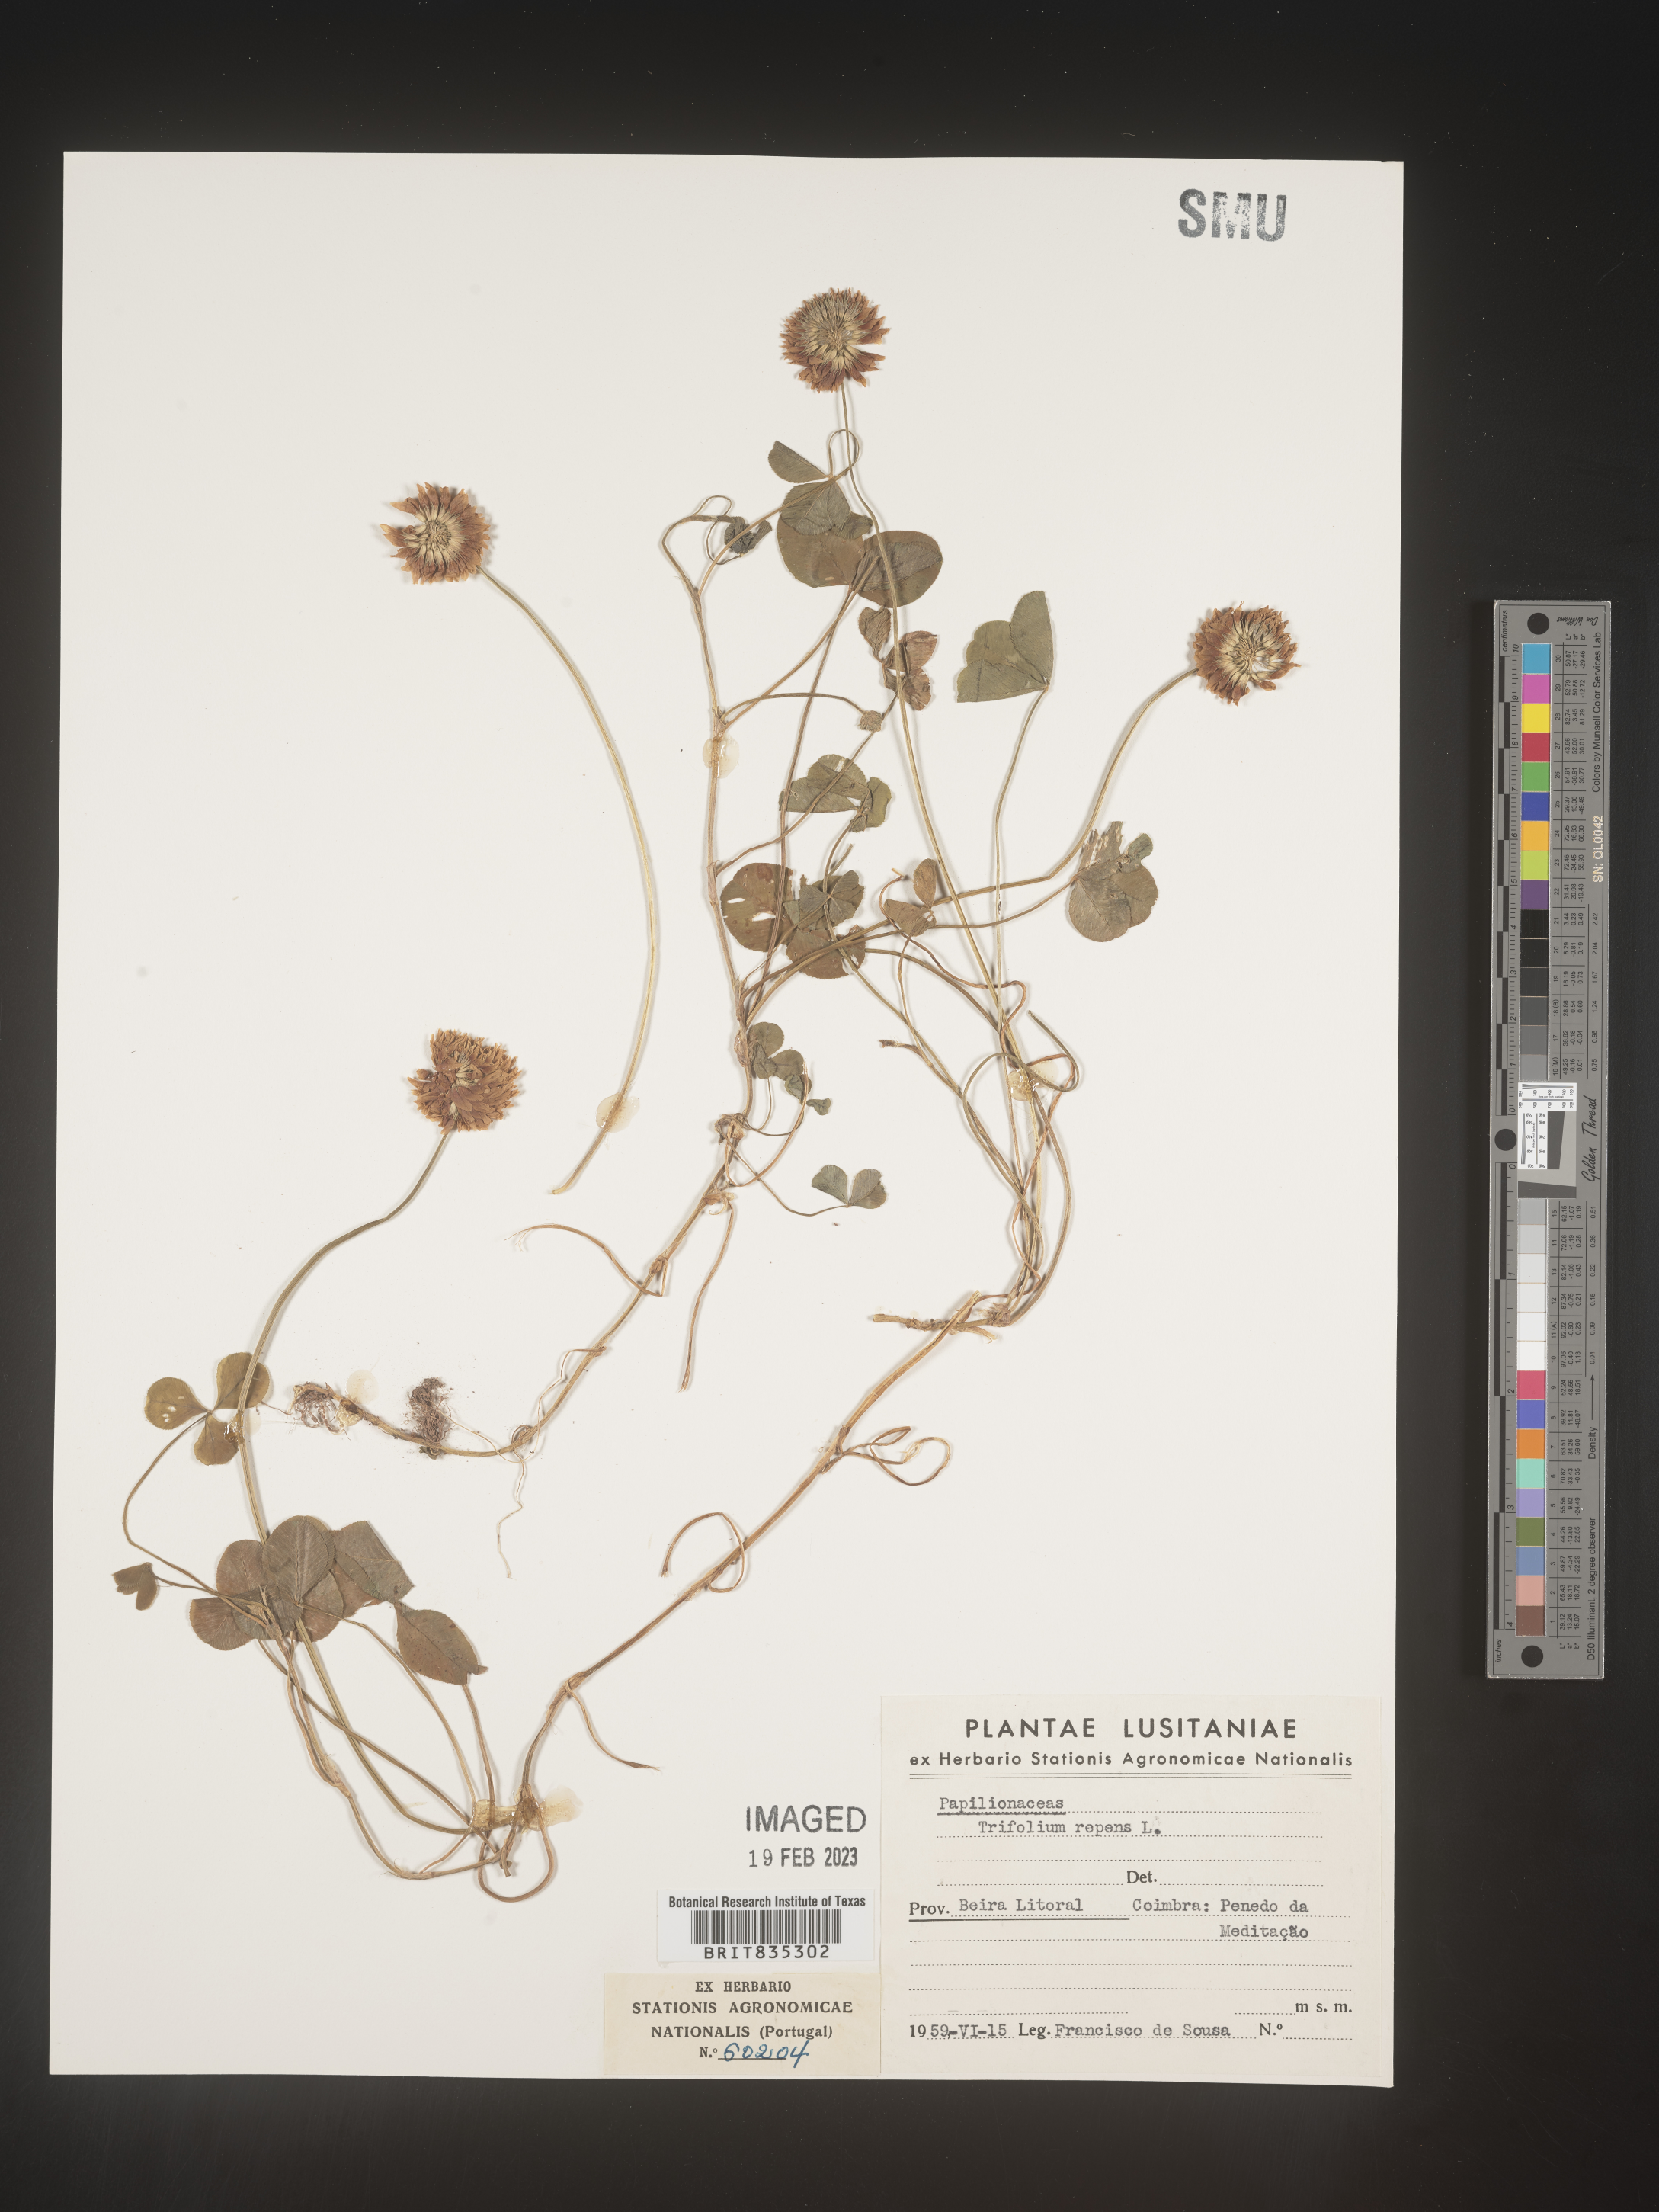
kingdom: Plantae
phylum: Tracheophyta
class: Magnoliopsida
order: Fabales
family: Fabaceae
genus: Trifolium
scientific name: Trifolium
